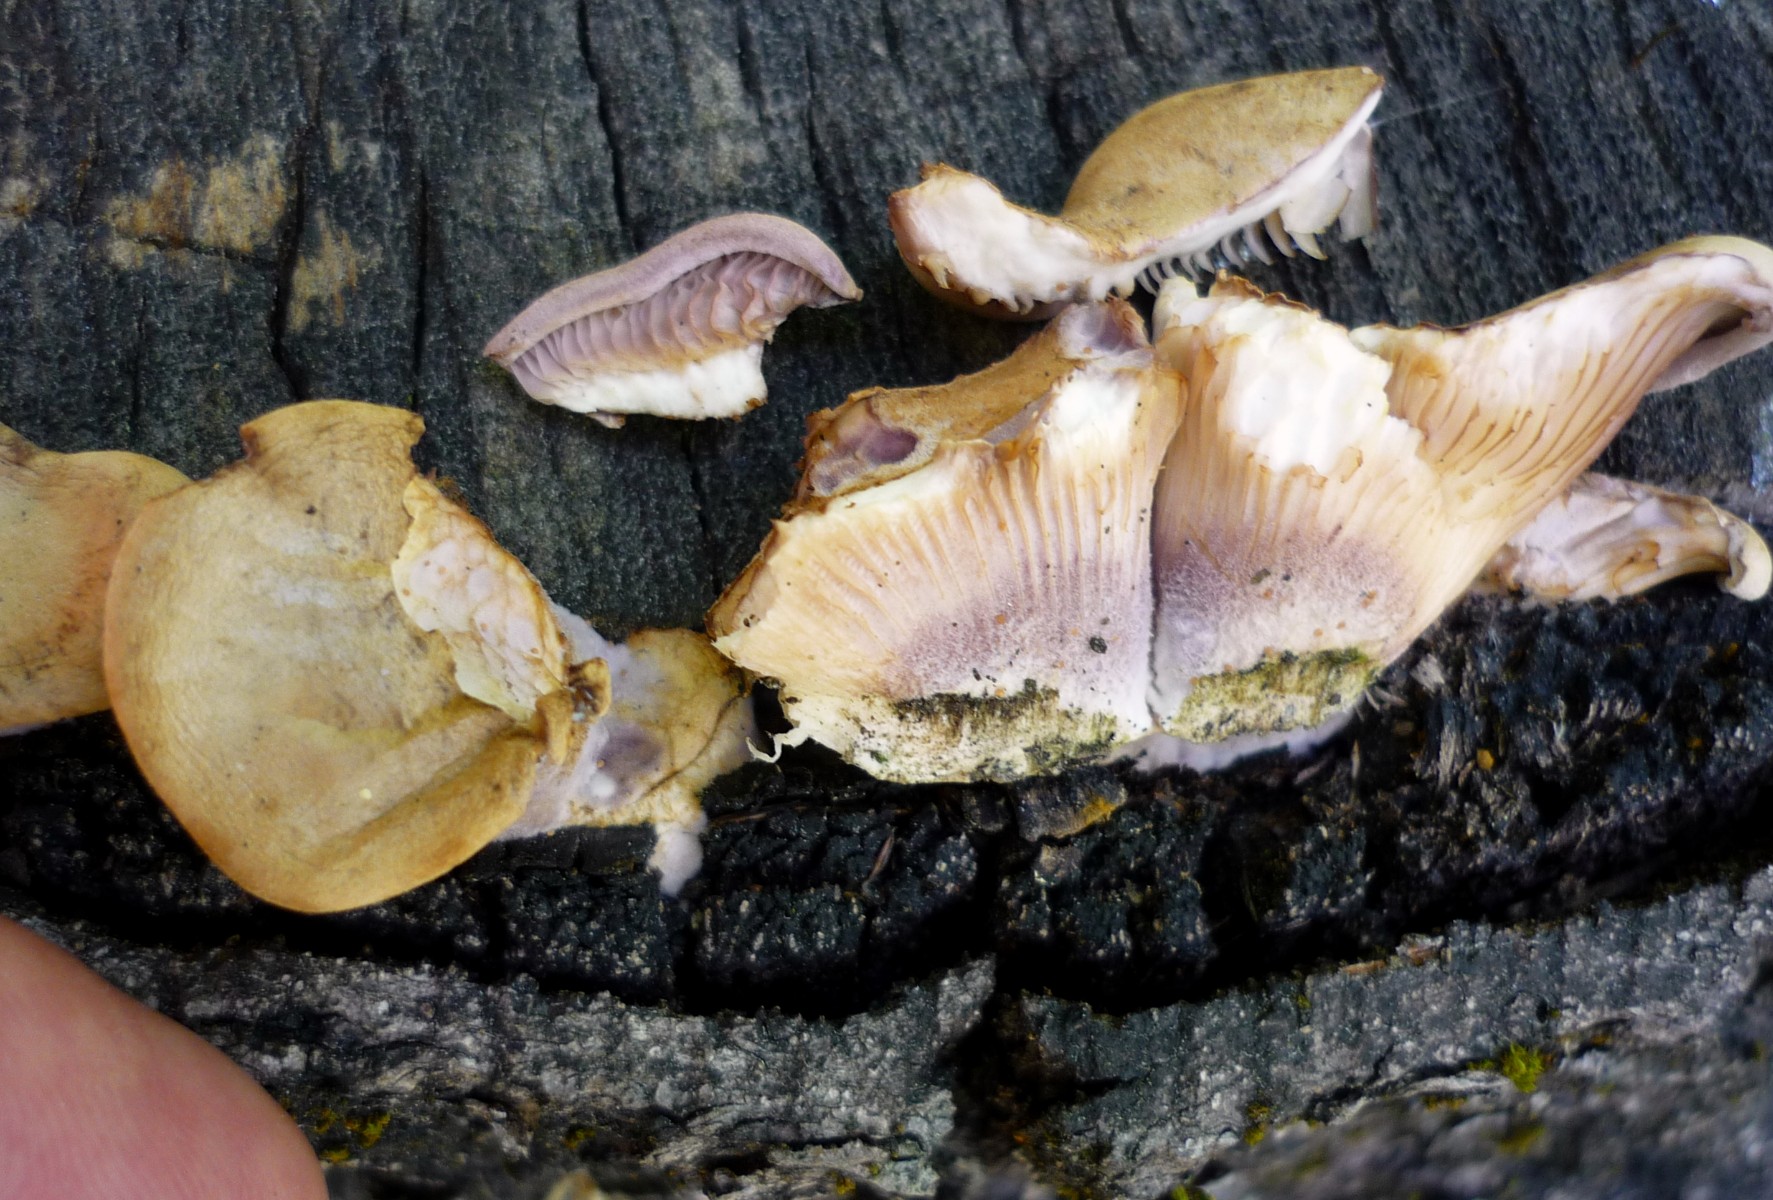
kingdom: Fungi
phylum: Basidiomycota
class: Agaricomycetes
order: Polyporales
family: Panaceae
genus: Panus
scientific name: Panus conchatus
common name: filtstokket læderhat
